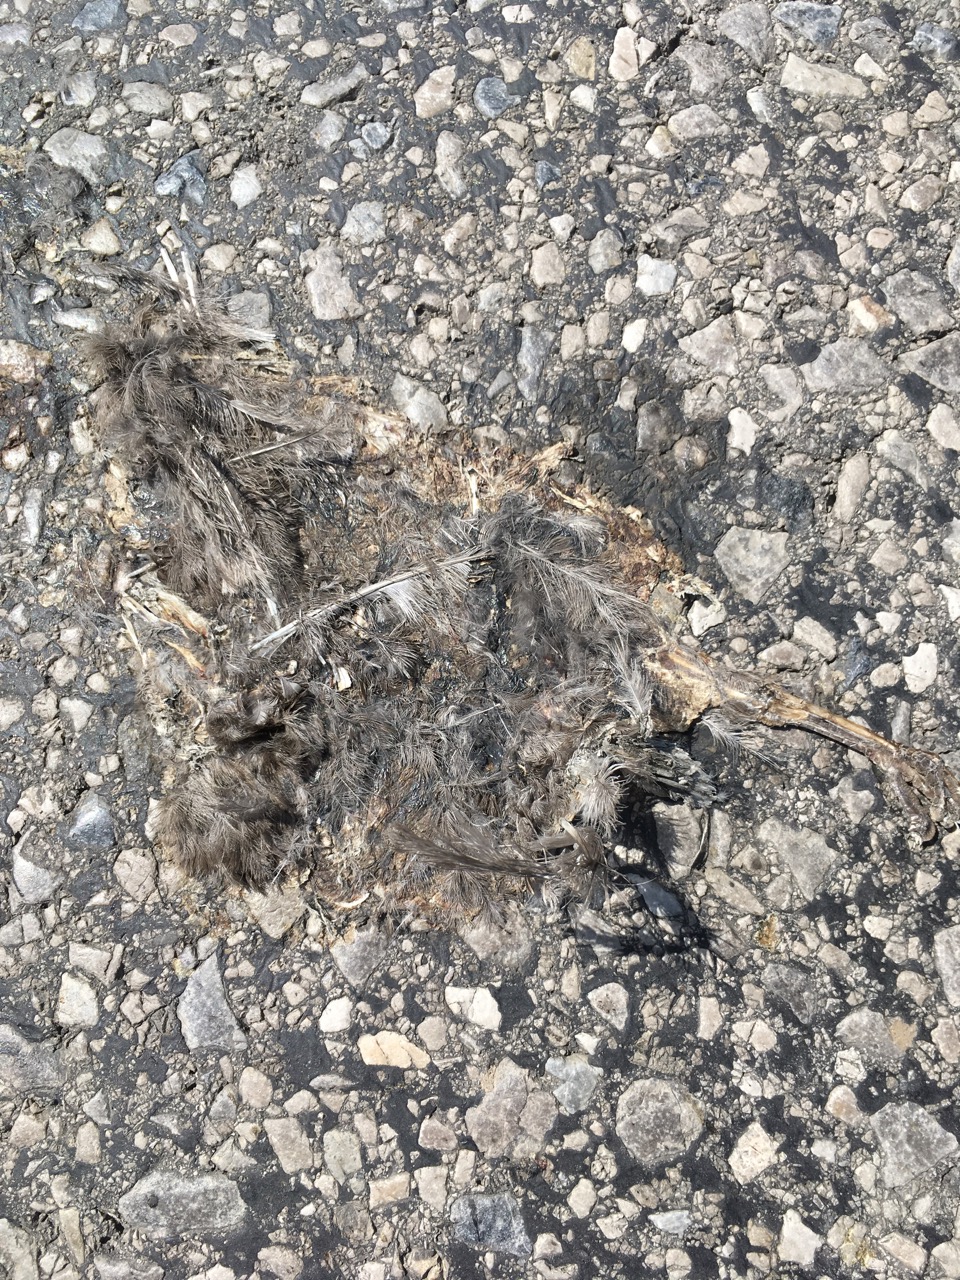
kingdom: Animalia
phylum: Chordata
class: Aves
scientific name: Aves
